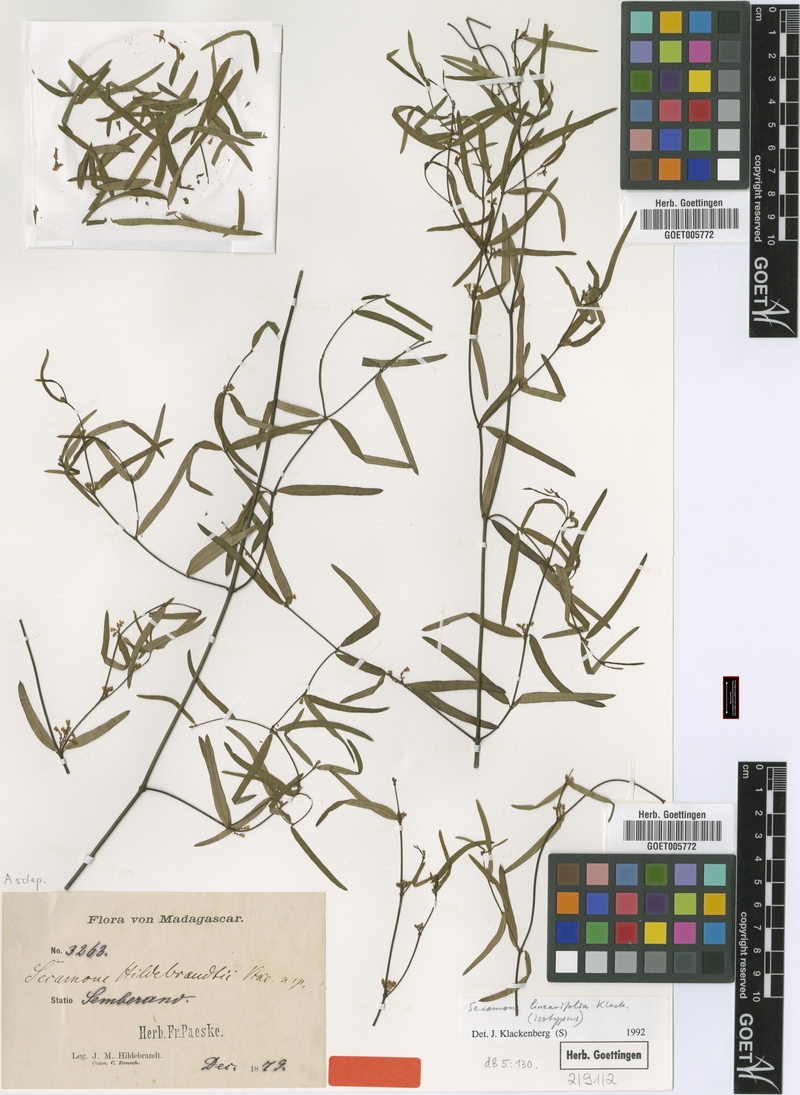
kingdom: Plantae
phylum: Tracheophyta
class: Magnoliopsida
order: Gentianales
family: Apocynaceae
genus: Secamone
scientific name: Secamone linearifolia
